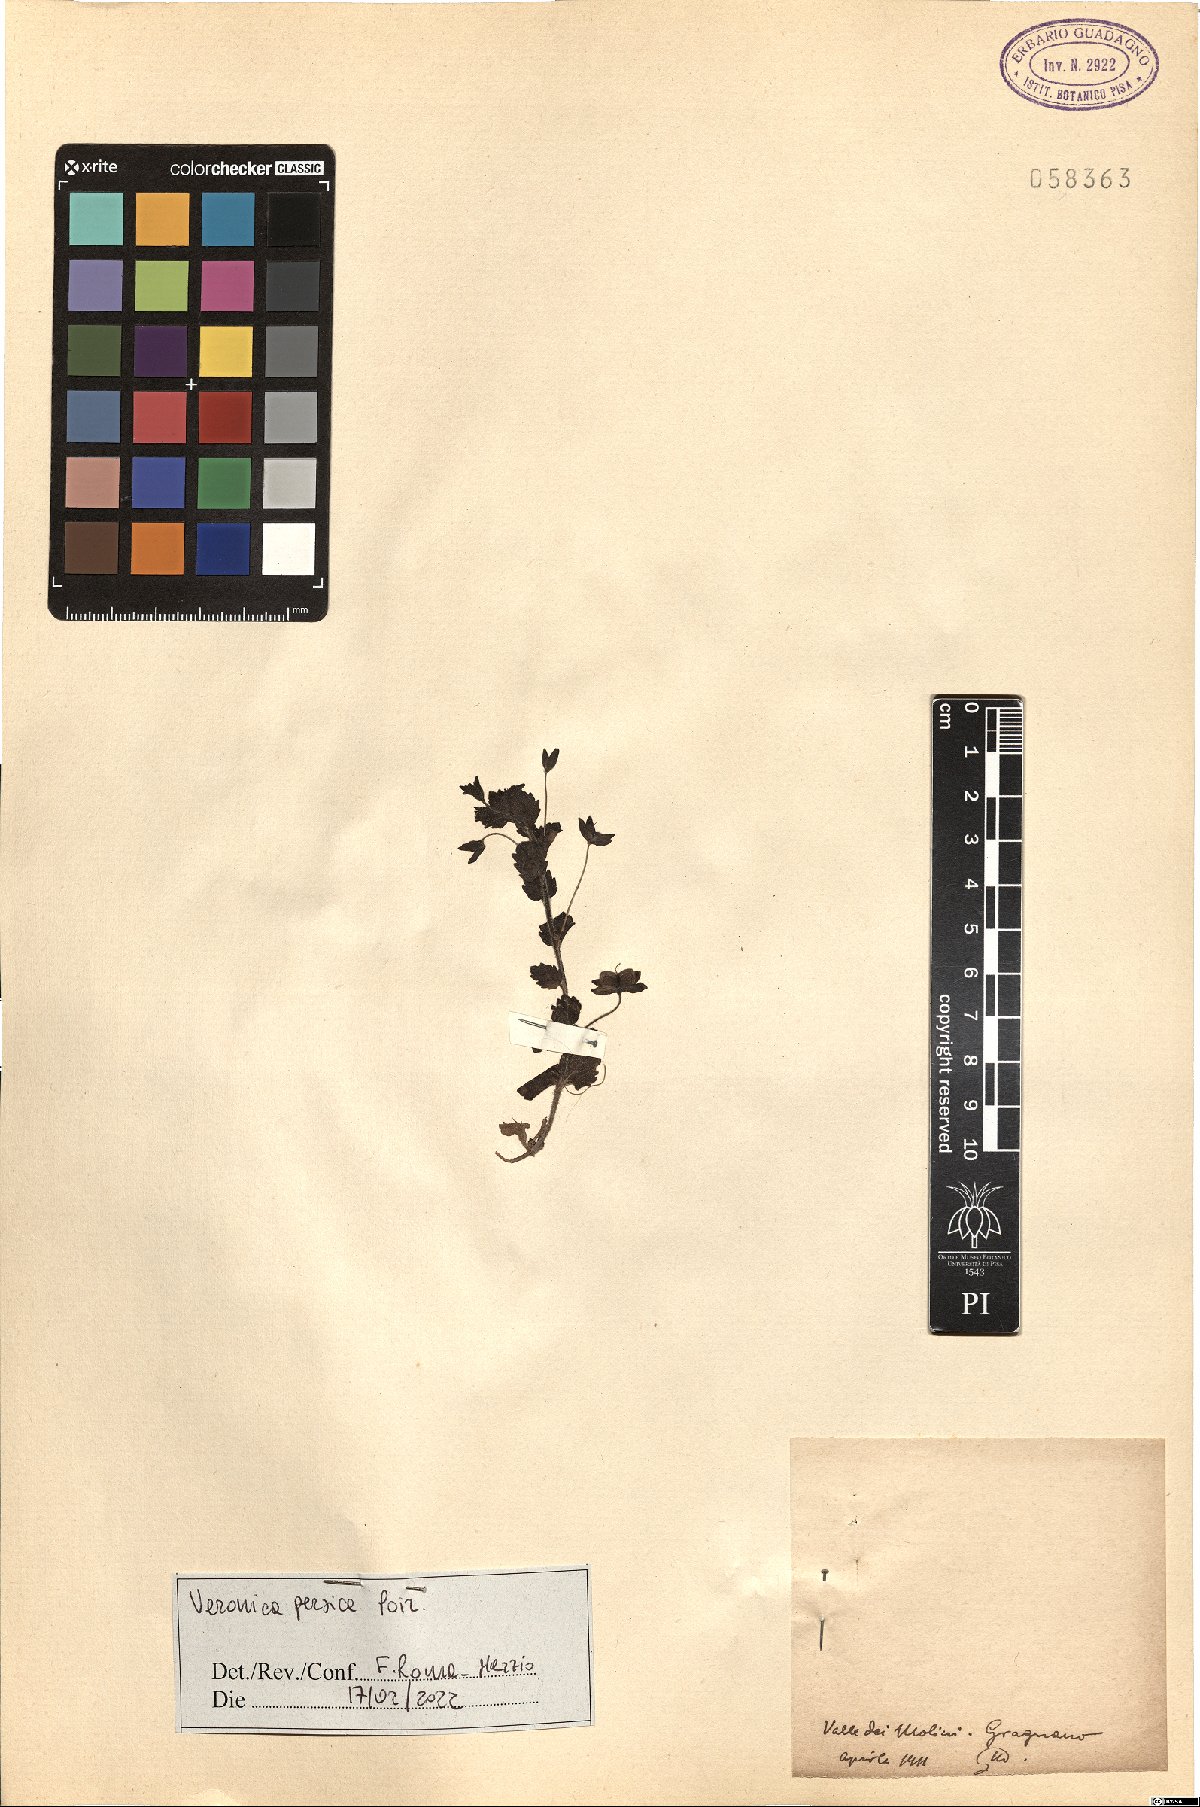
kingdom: Plantae
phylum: Tracheophyta
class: Magnoliopsida
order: Lamiales
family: Plantaginaceae
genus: Veronica
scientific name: Veronica persica
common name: Common field-speedwell
